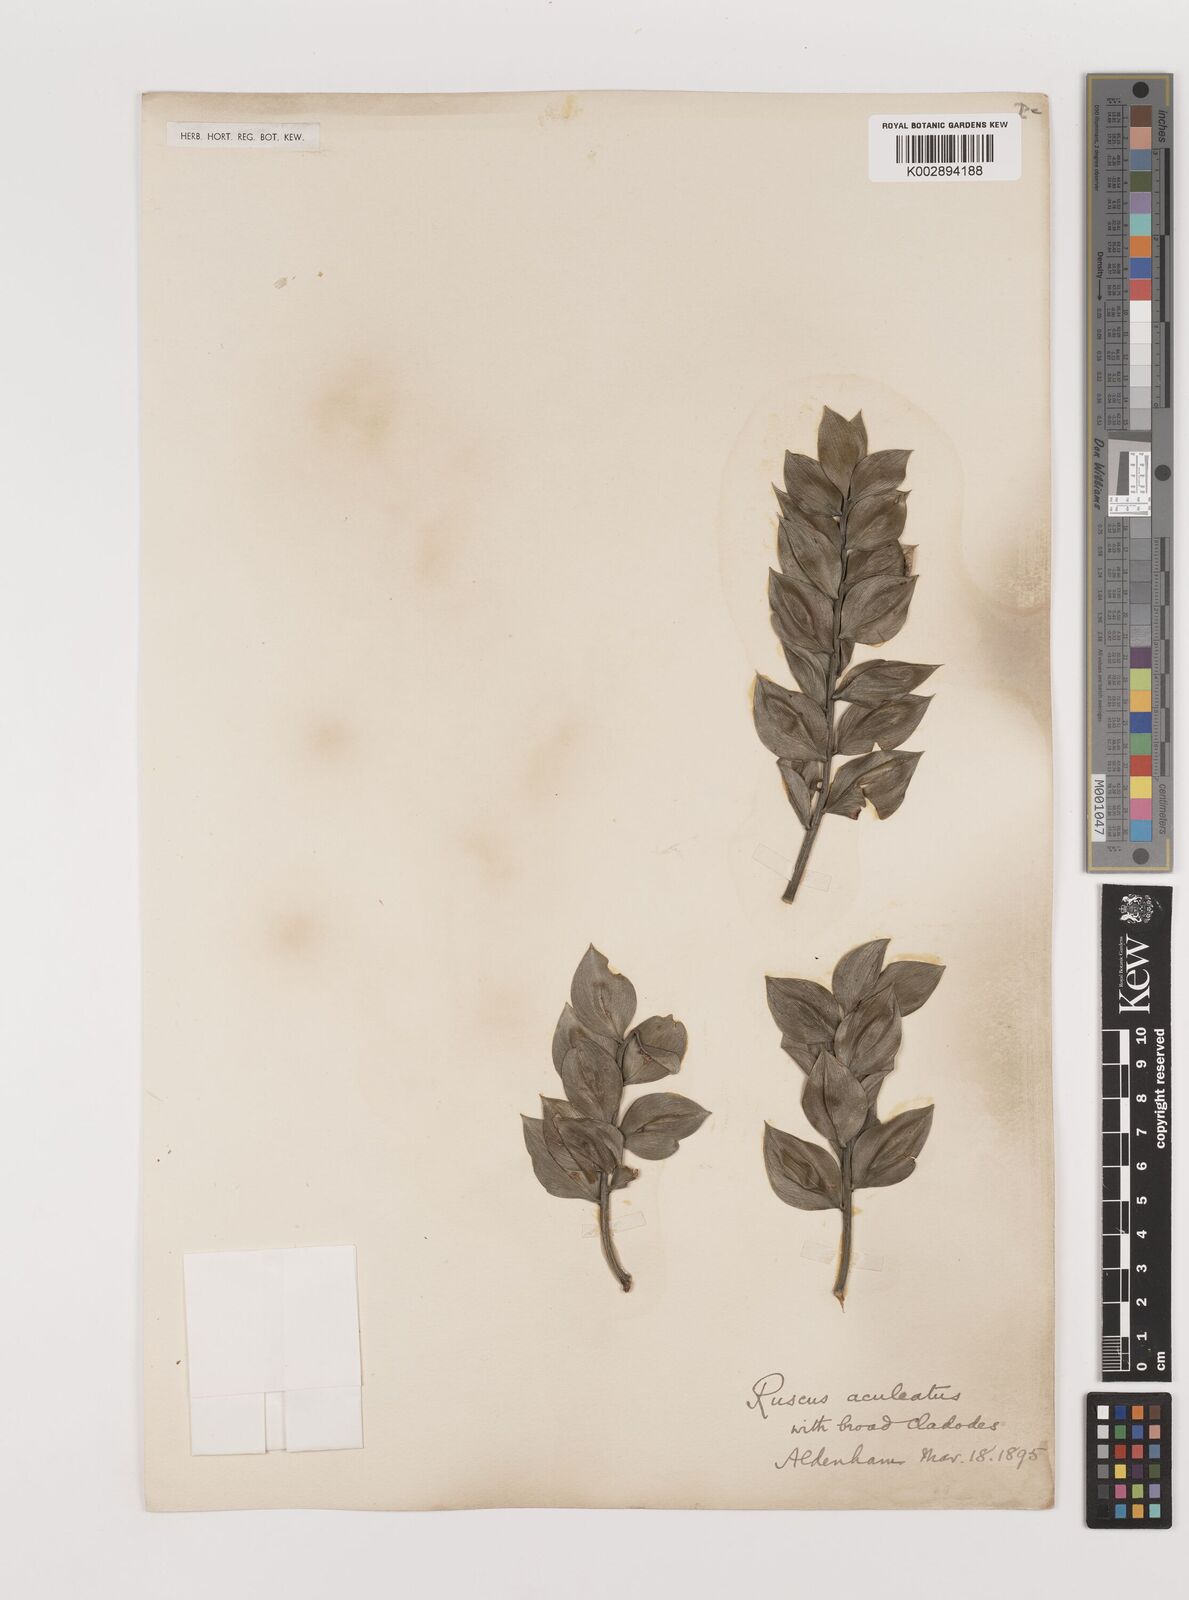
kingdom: Plantae
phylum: Tracheophyta
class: Liliopsida
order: Asparagales
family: Asparagaceae
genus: Ruscus
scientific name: Ruscus aculeatus
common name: Butcher's-broom
